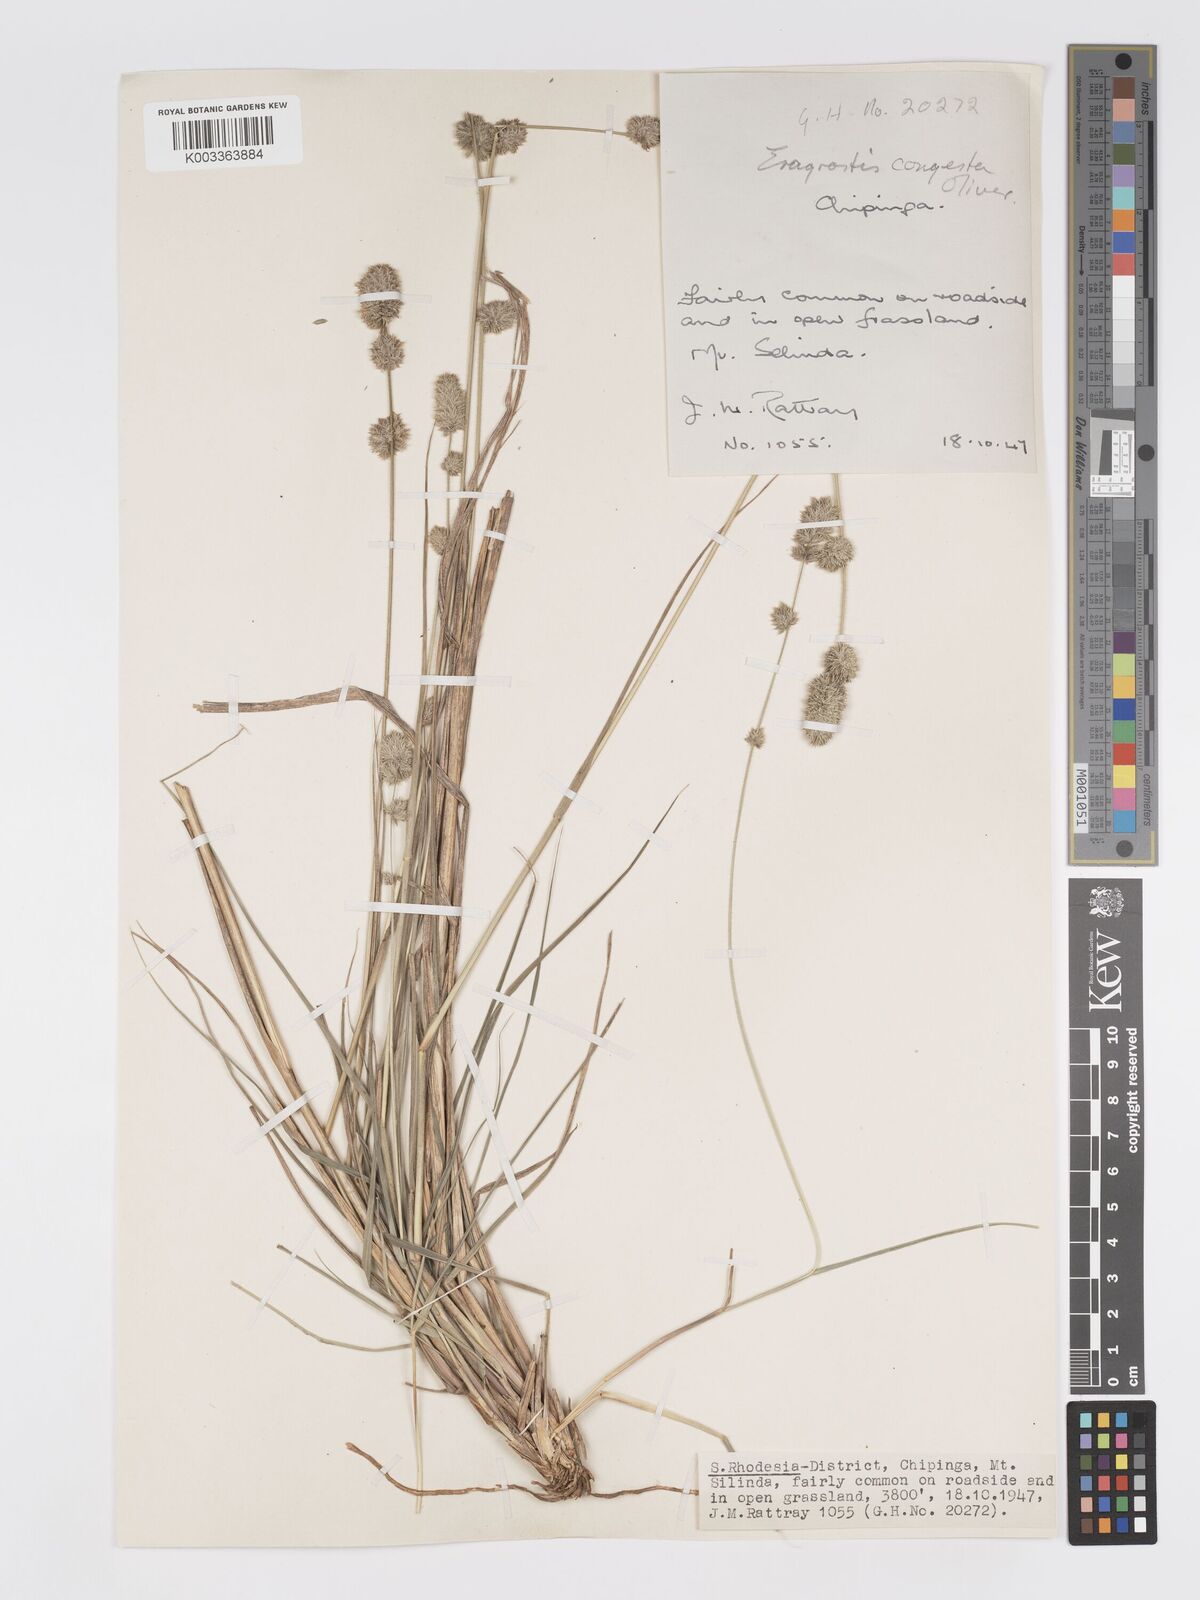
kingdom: Plantae
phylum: Tracheophyta
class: Liliopsida
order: Poales
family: Poaceae
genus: Eragrostis
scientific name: Eragrostis congesta
